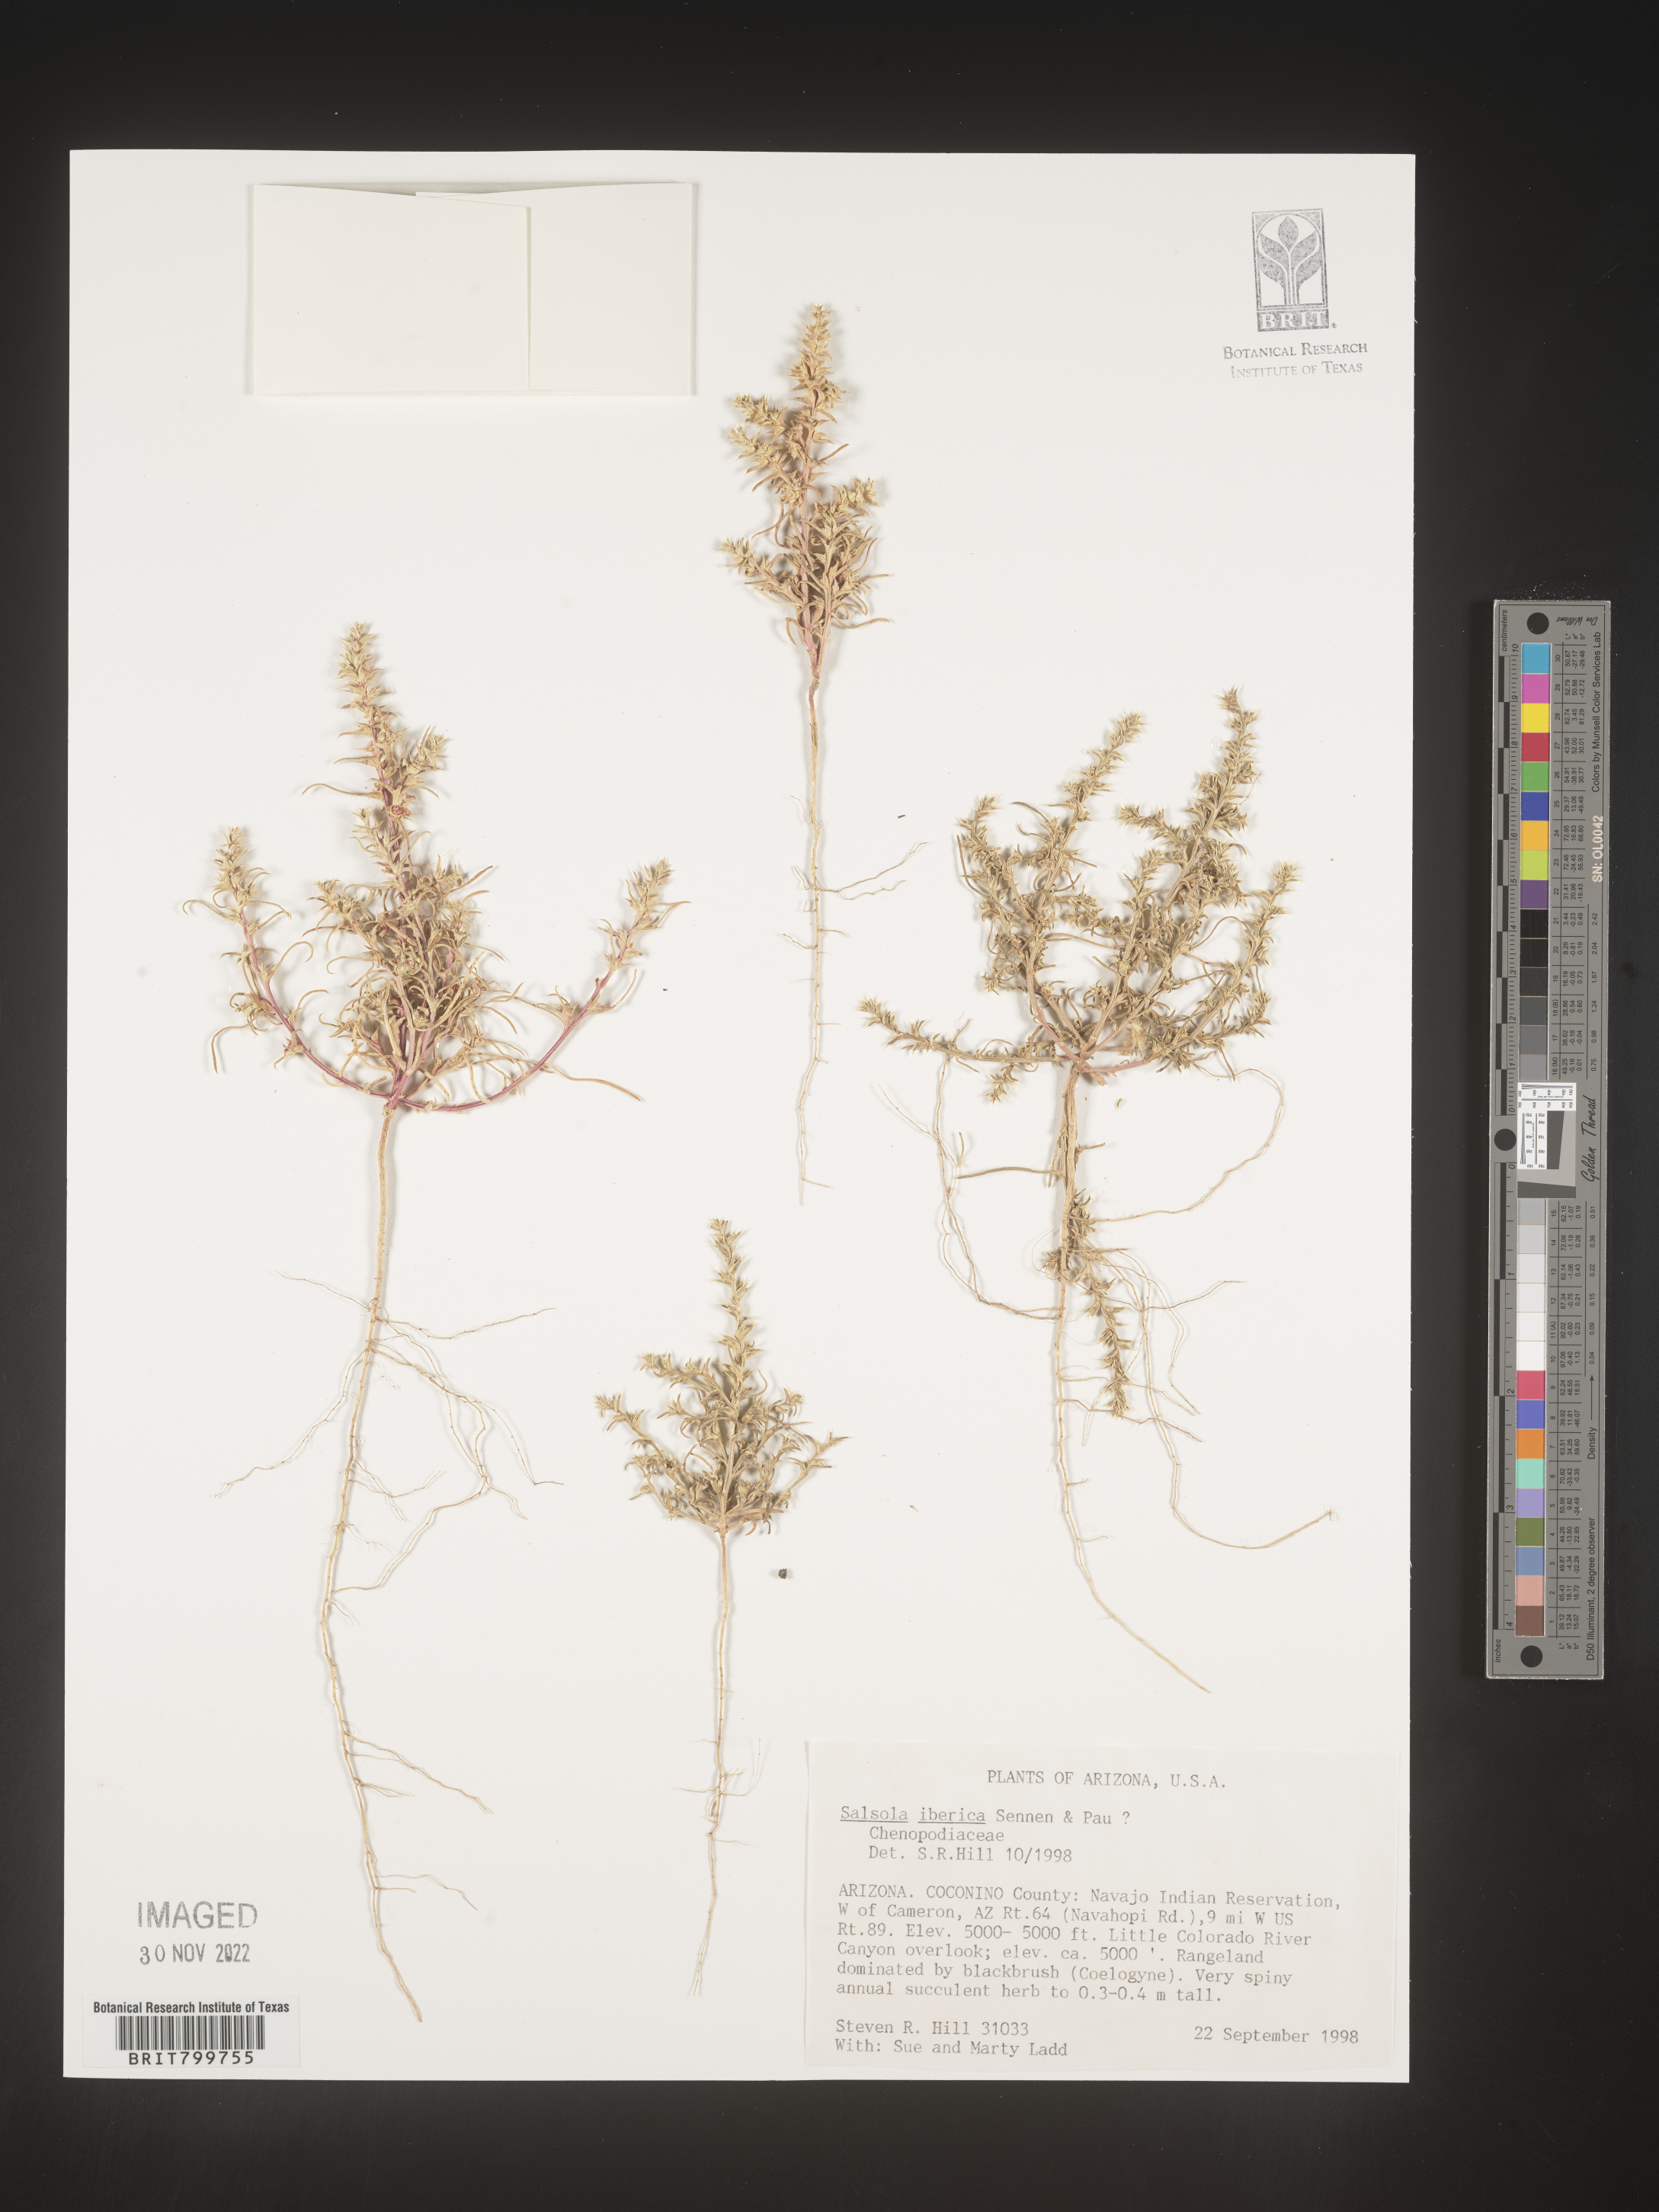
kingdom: Plantae
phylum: Tracheophyta
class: Magnoliopsida
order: Caryophyllales
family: Amaranthaceae
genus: Salsola
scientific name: Salsola
